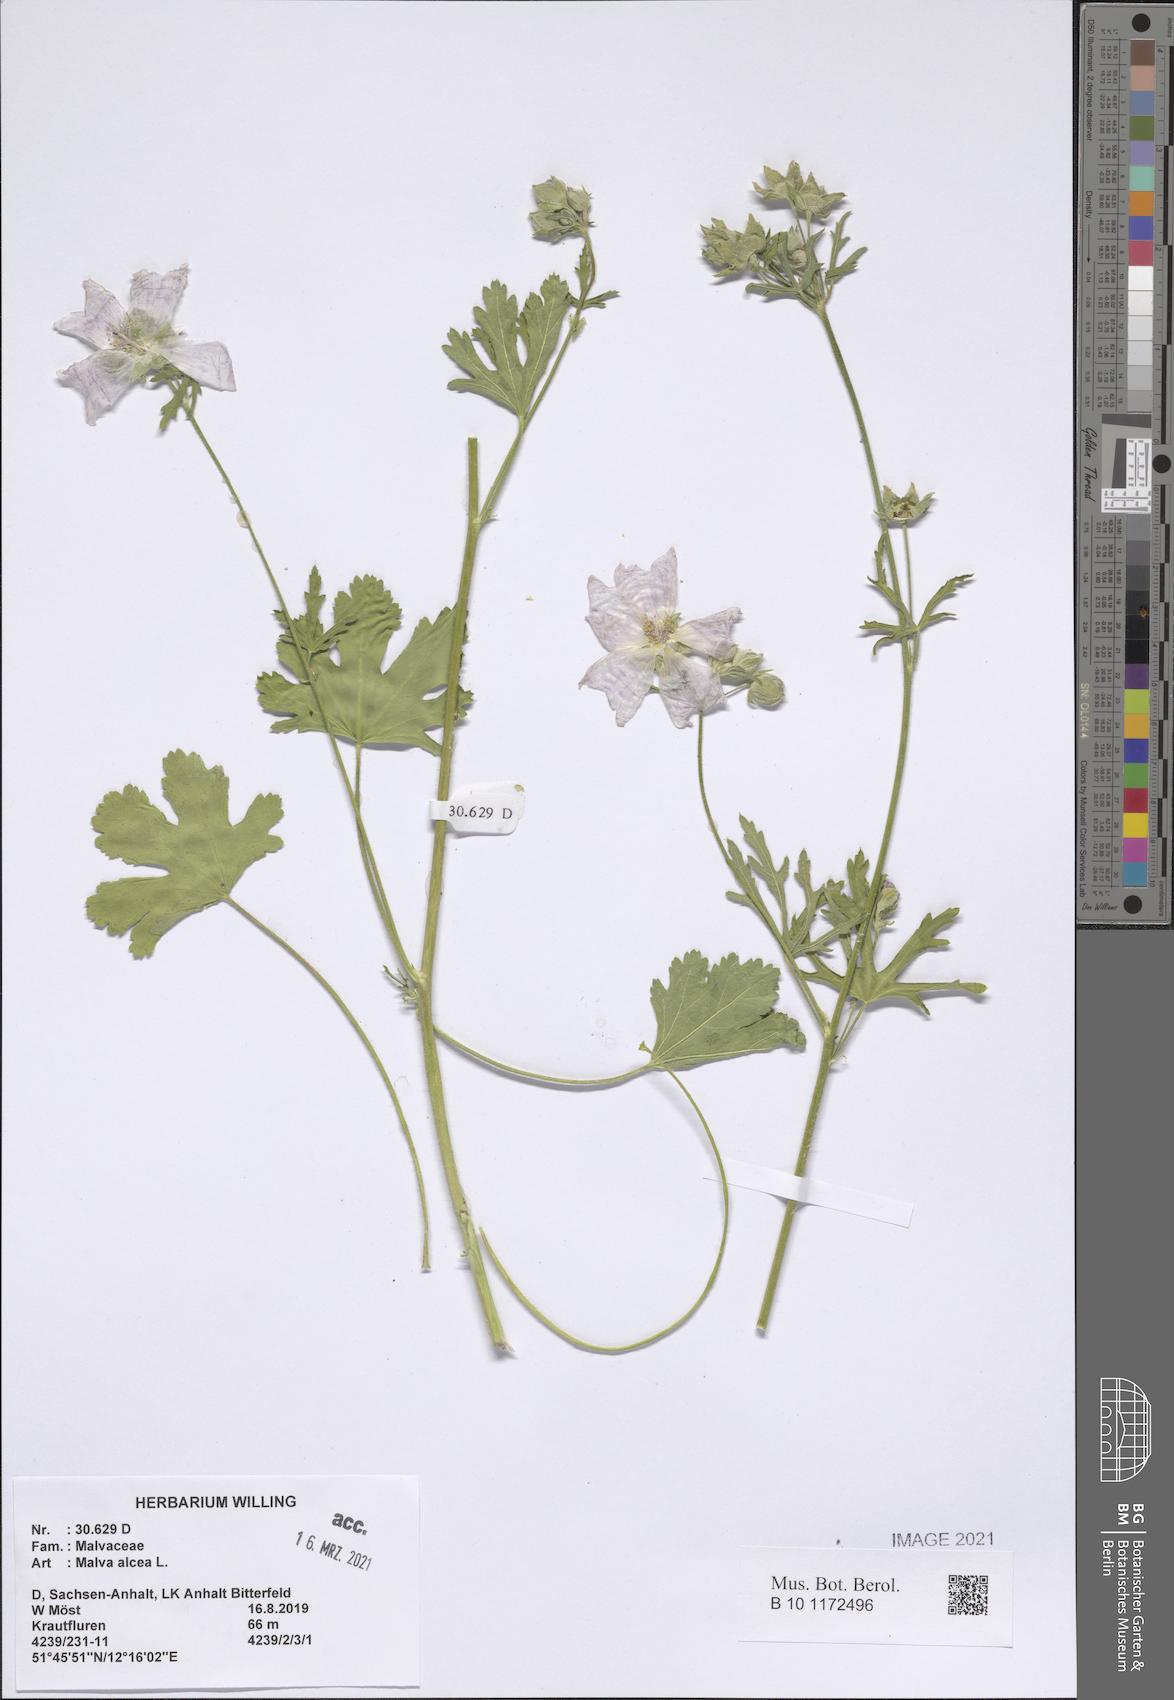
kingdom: Plantae
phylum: Tracheophyta
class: Magnoliopsida
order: Malvales
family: Malvaceae
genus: Malva
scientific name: Malva moschata
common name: Musk mallow
